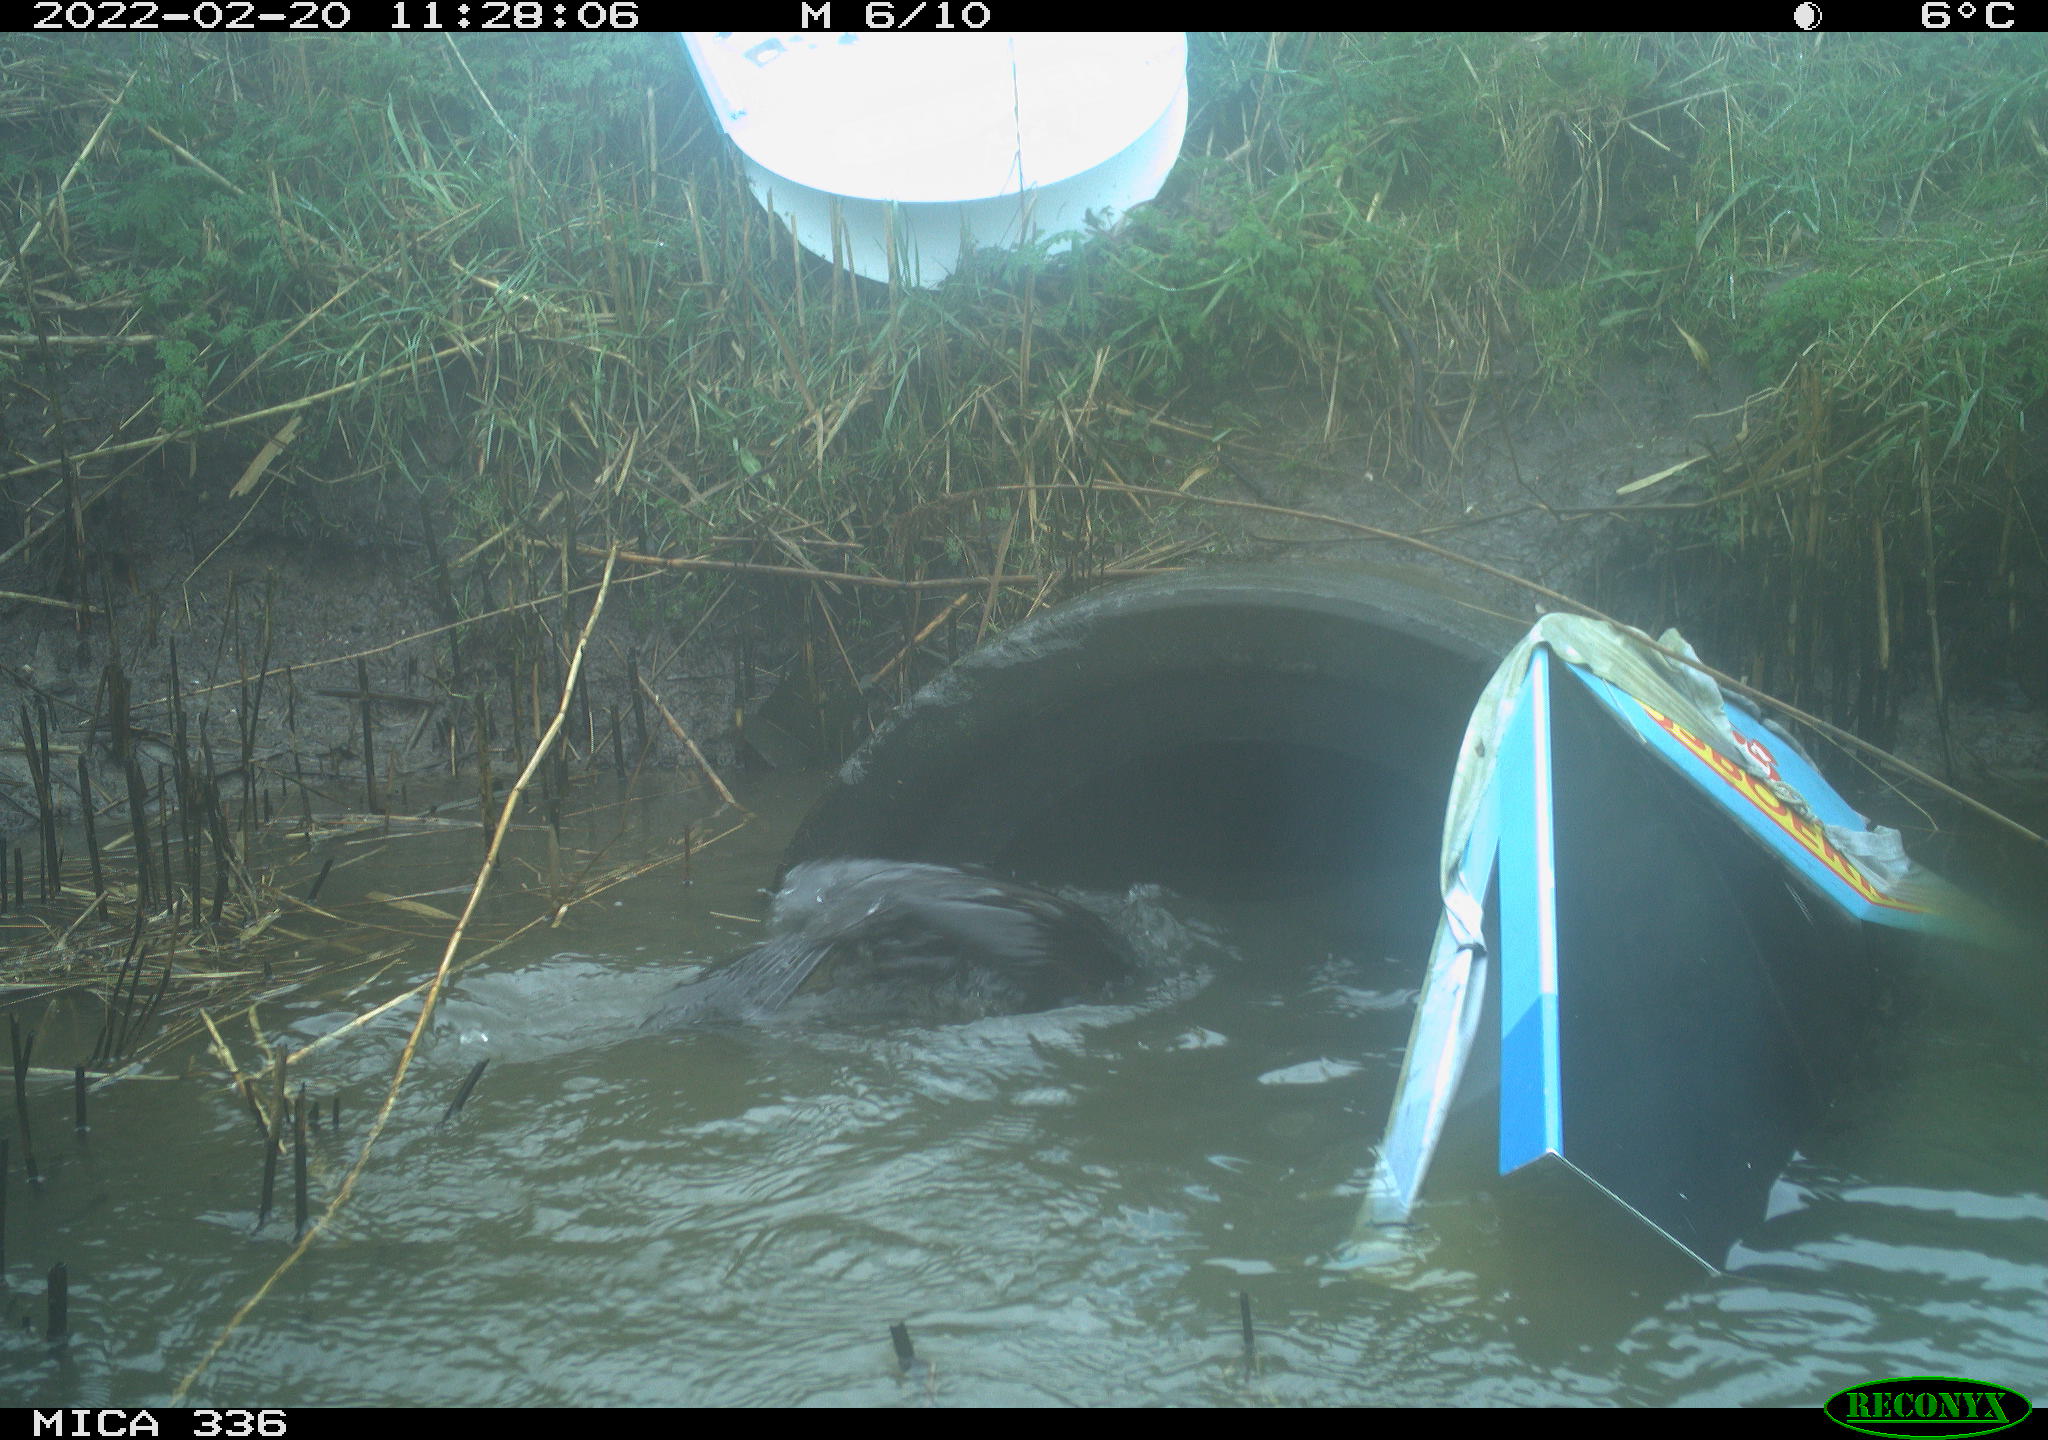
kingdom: Animalia
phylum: Chordata
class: Aves
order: Suliformes
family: Phalacrocoracidae
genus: Phalacrocorax
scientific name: Phalacrocorax carbo
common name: Great cormorant
